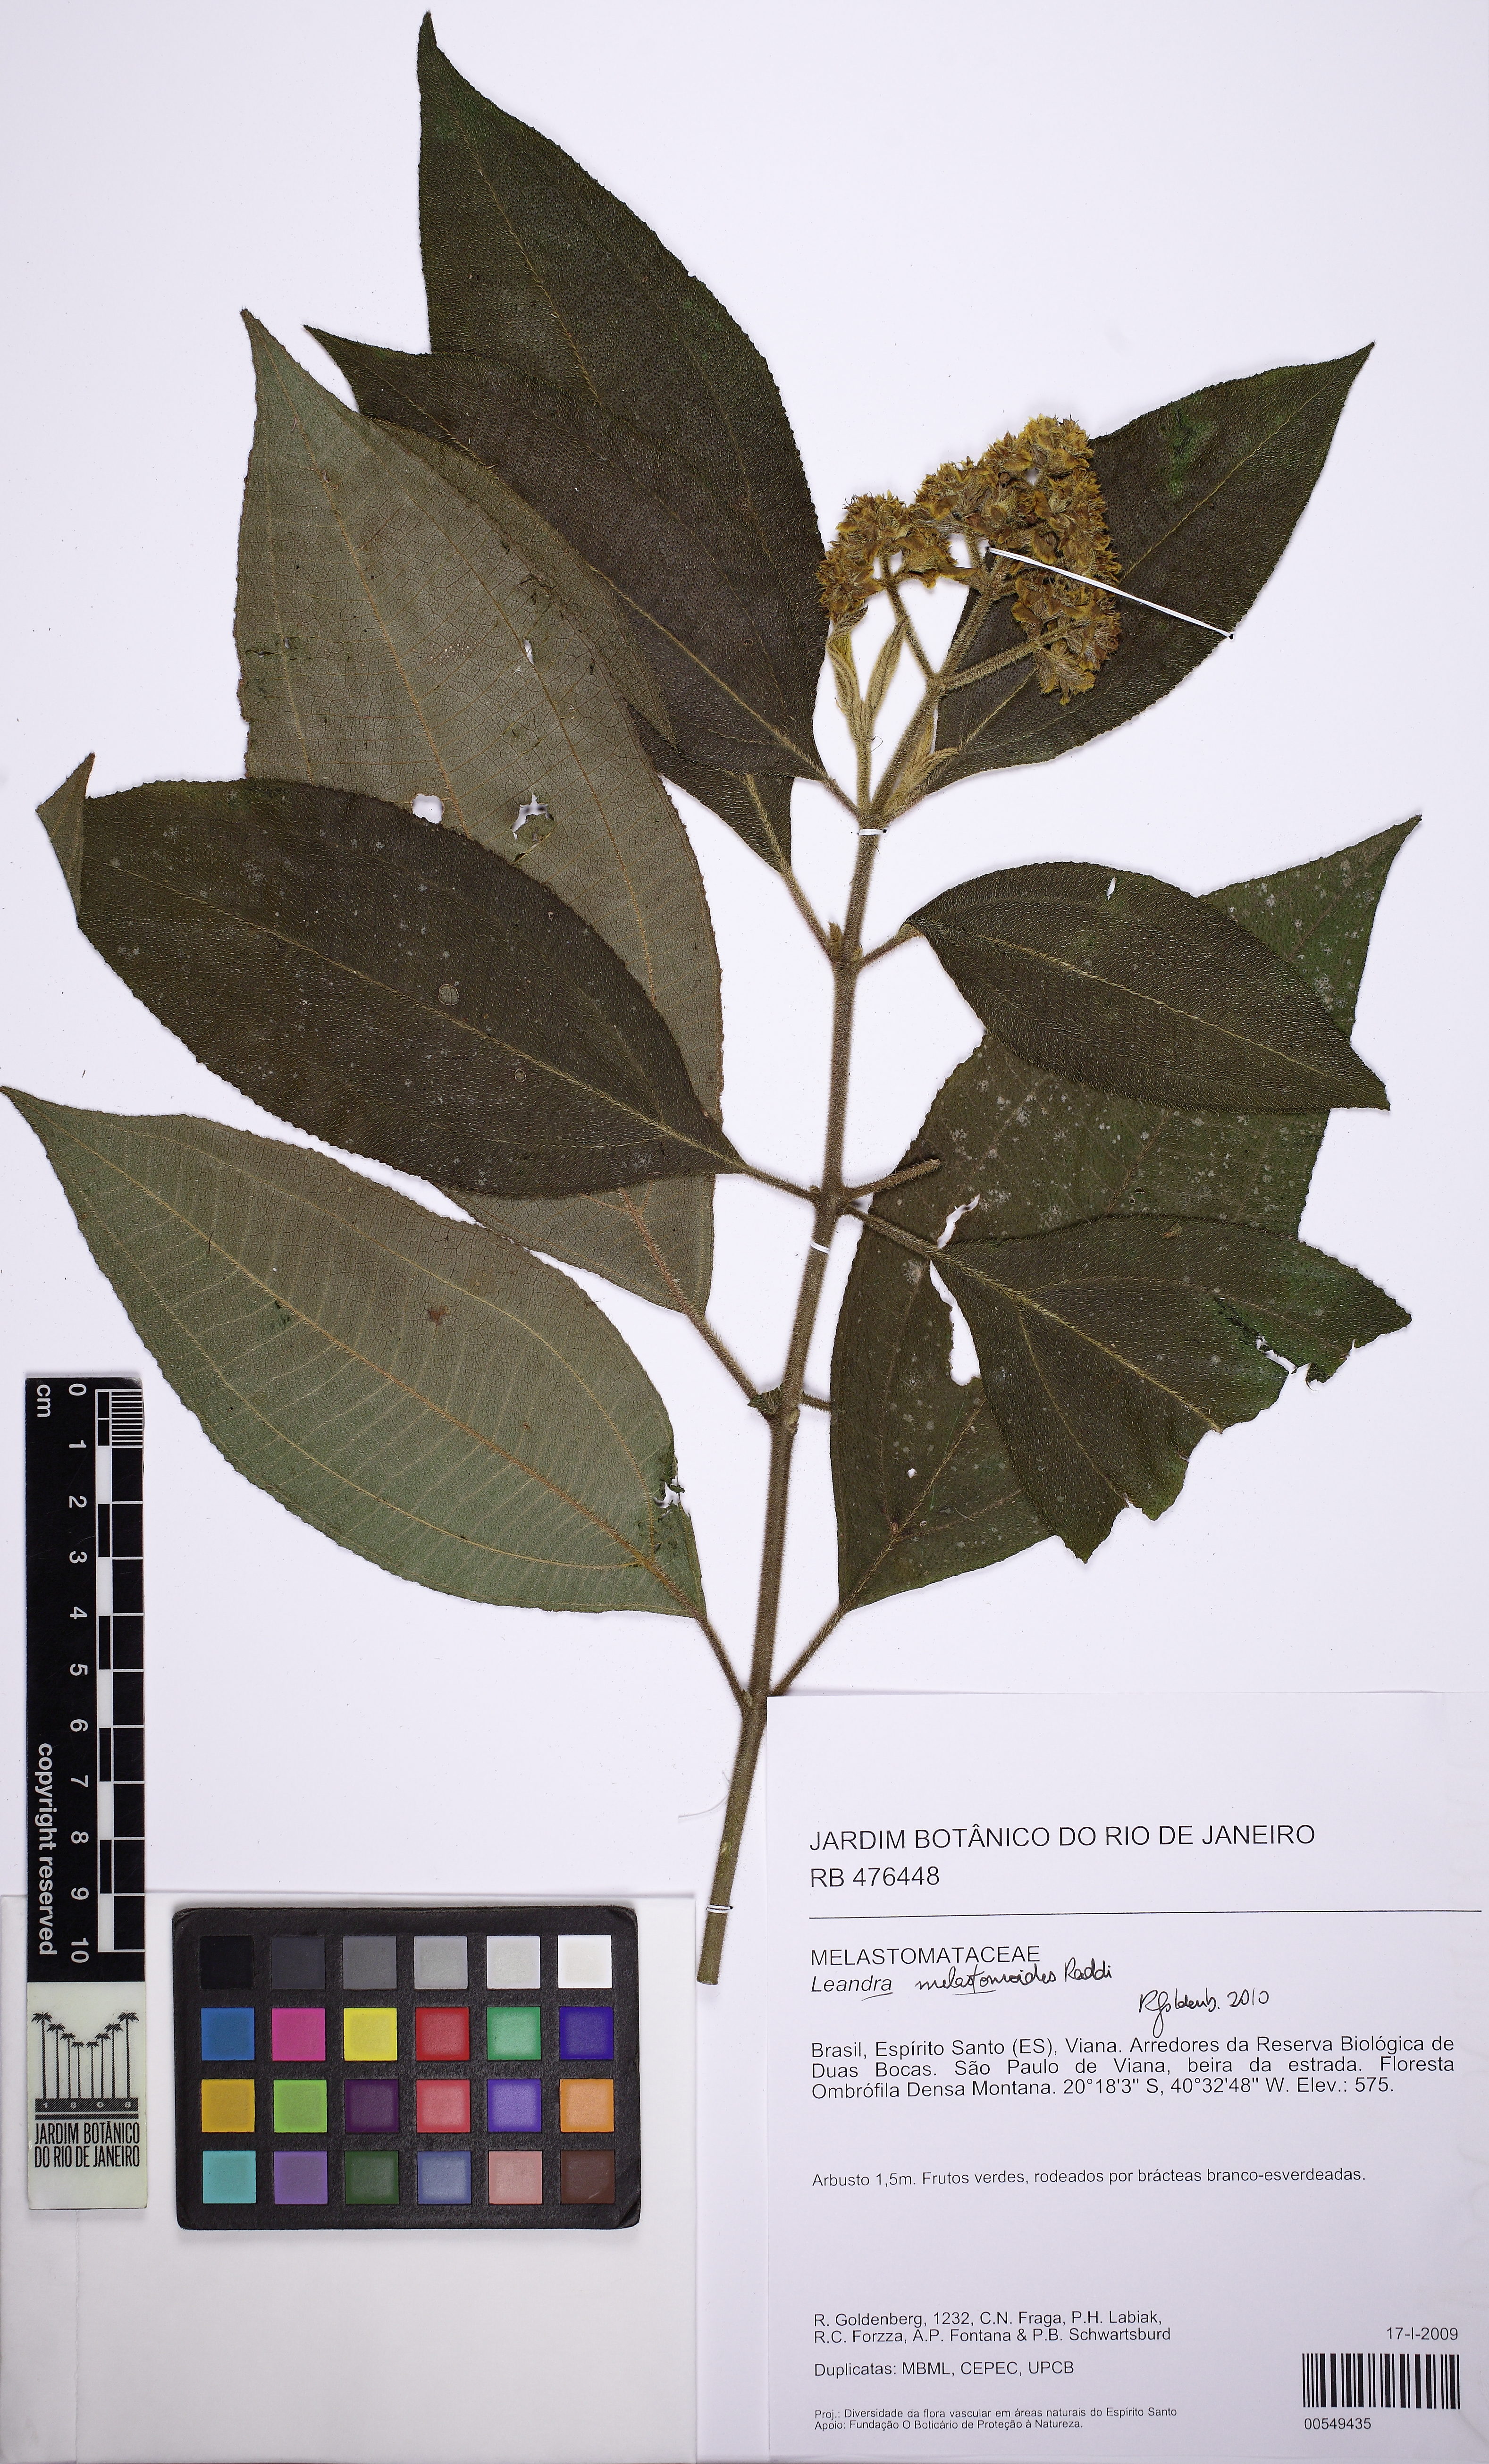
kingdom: Plantae
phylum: Tracheophyta
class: Magnoliopsida
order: Myrtales
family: Melastomataceae
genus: Miconia
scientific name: Miconia melastomoides
